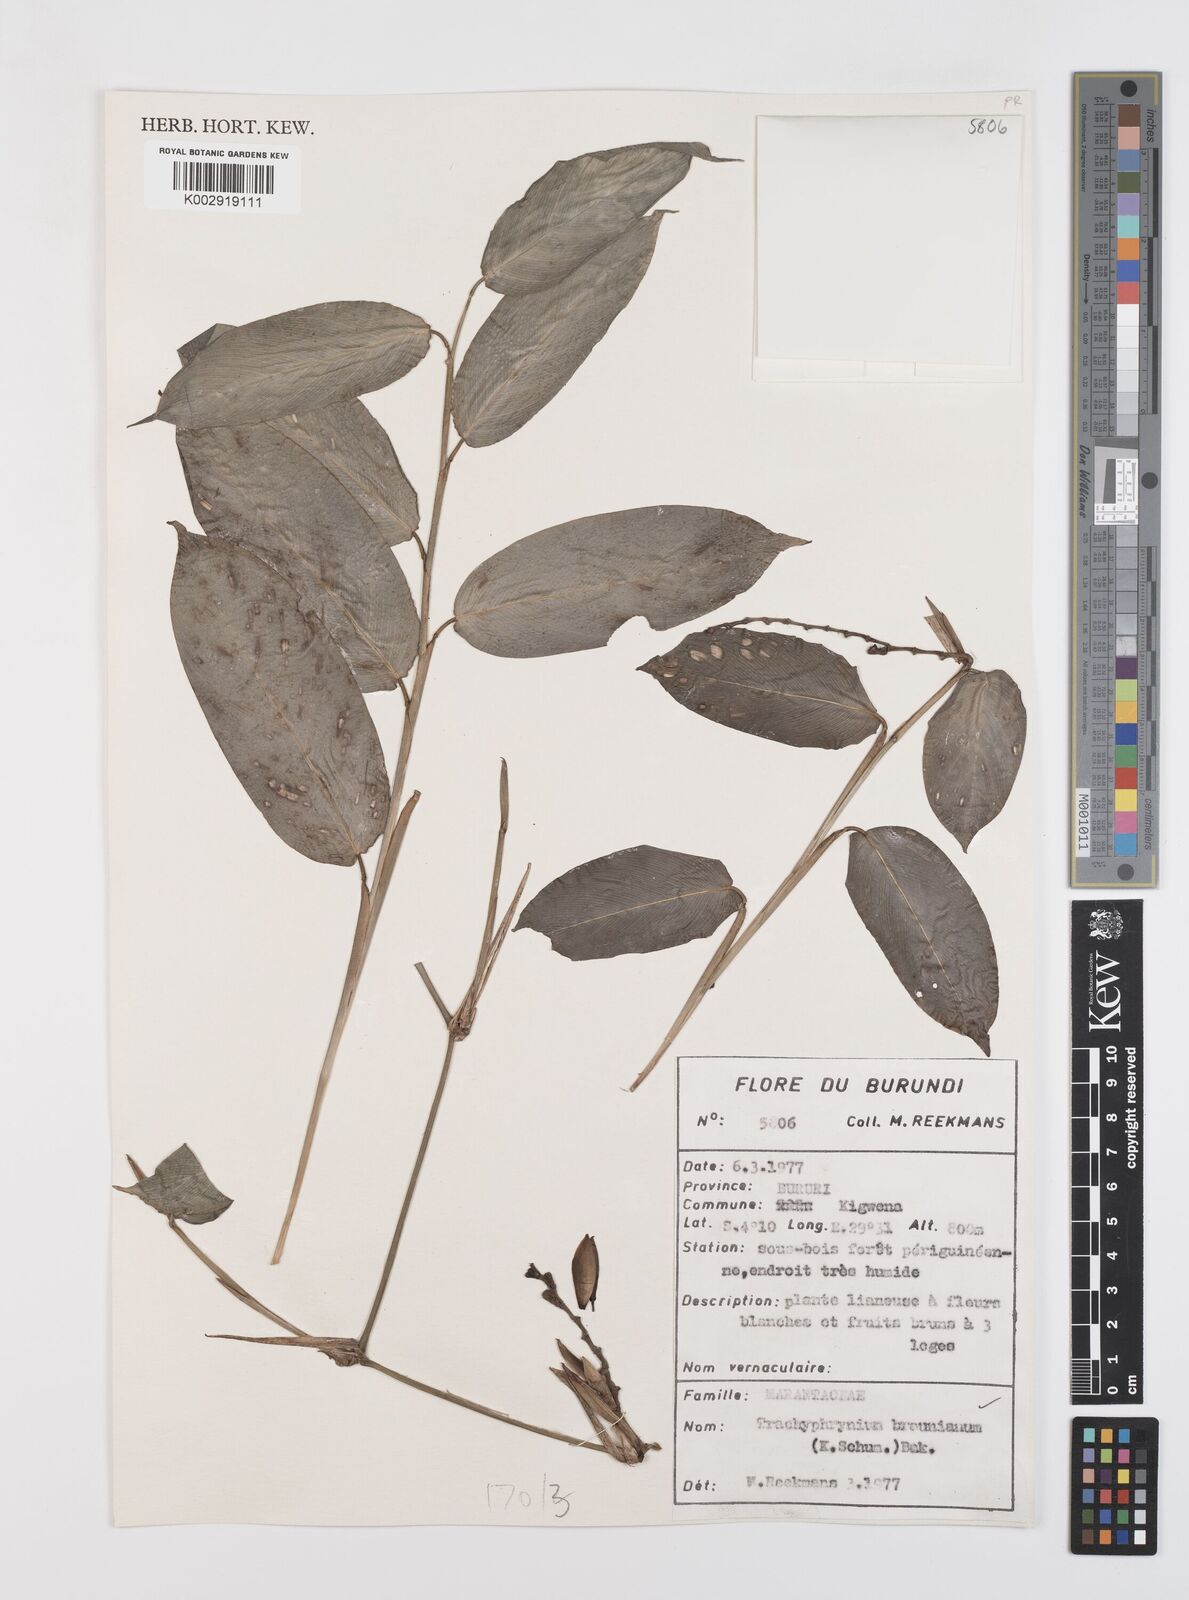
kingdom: Plantae
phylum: Tracheophyta
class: Liliopsida
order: Zingiberales
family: Marantaceae
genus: Trachyphrynium
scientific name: Trachyphrynium braunianum
